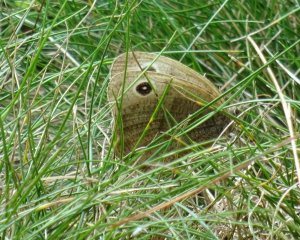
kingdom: Animalia
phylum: Arthropoda
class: Insecta
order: Lepidoptera
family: Nymphalidae
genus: Cercyonis
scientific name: Cercyonis pegala
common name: Common Wood-Nymph
